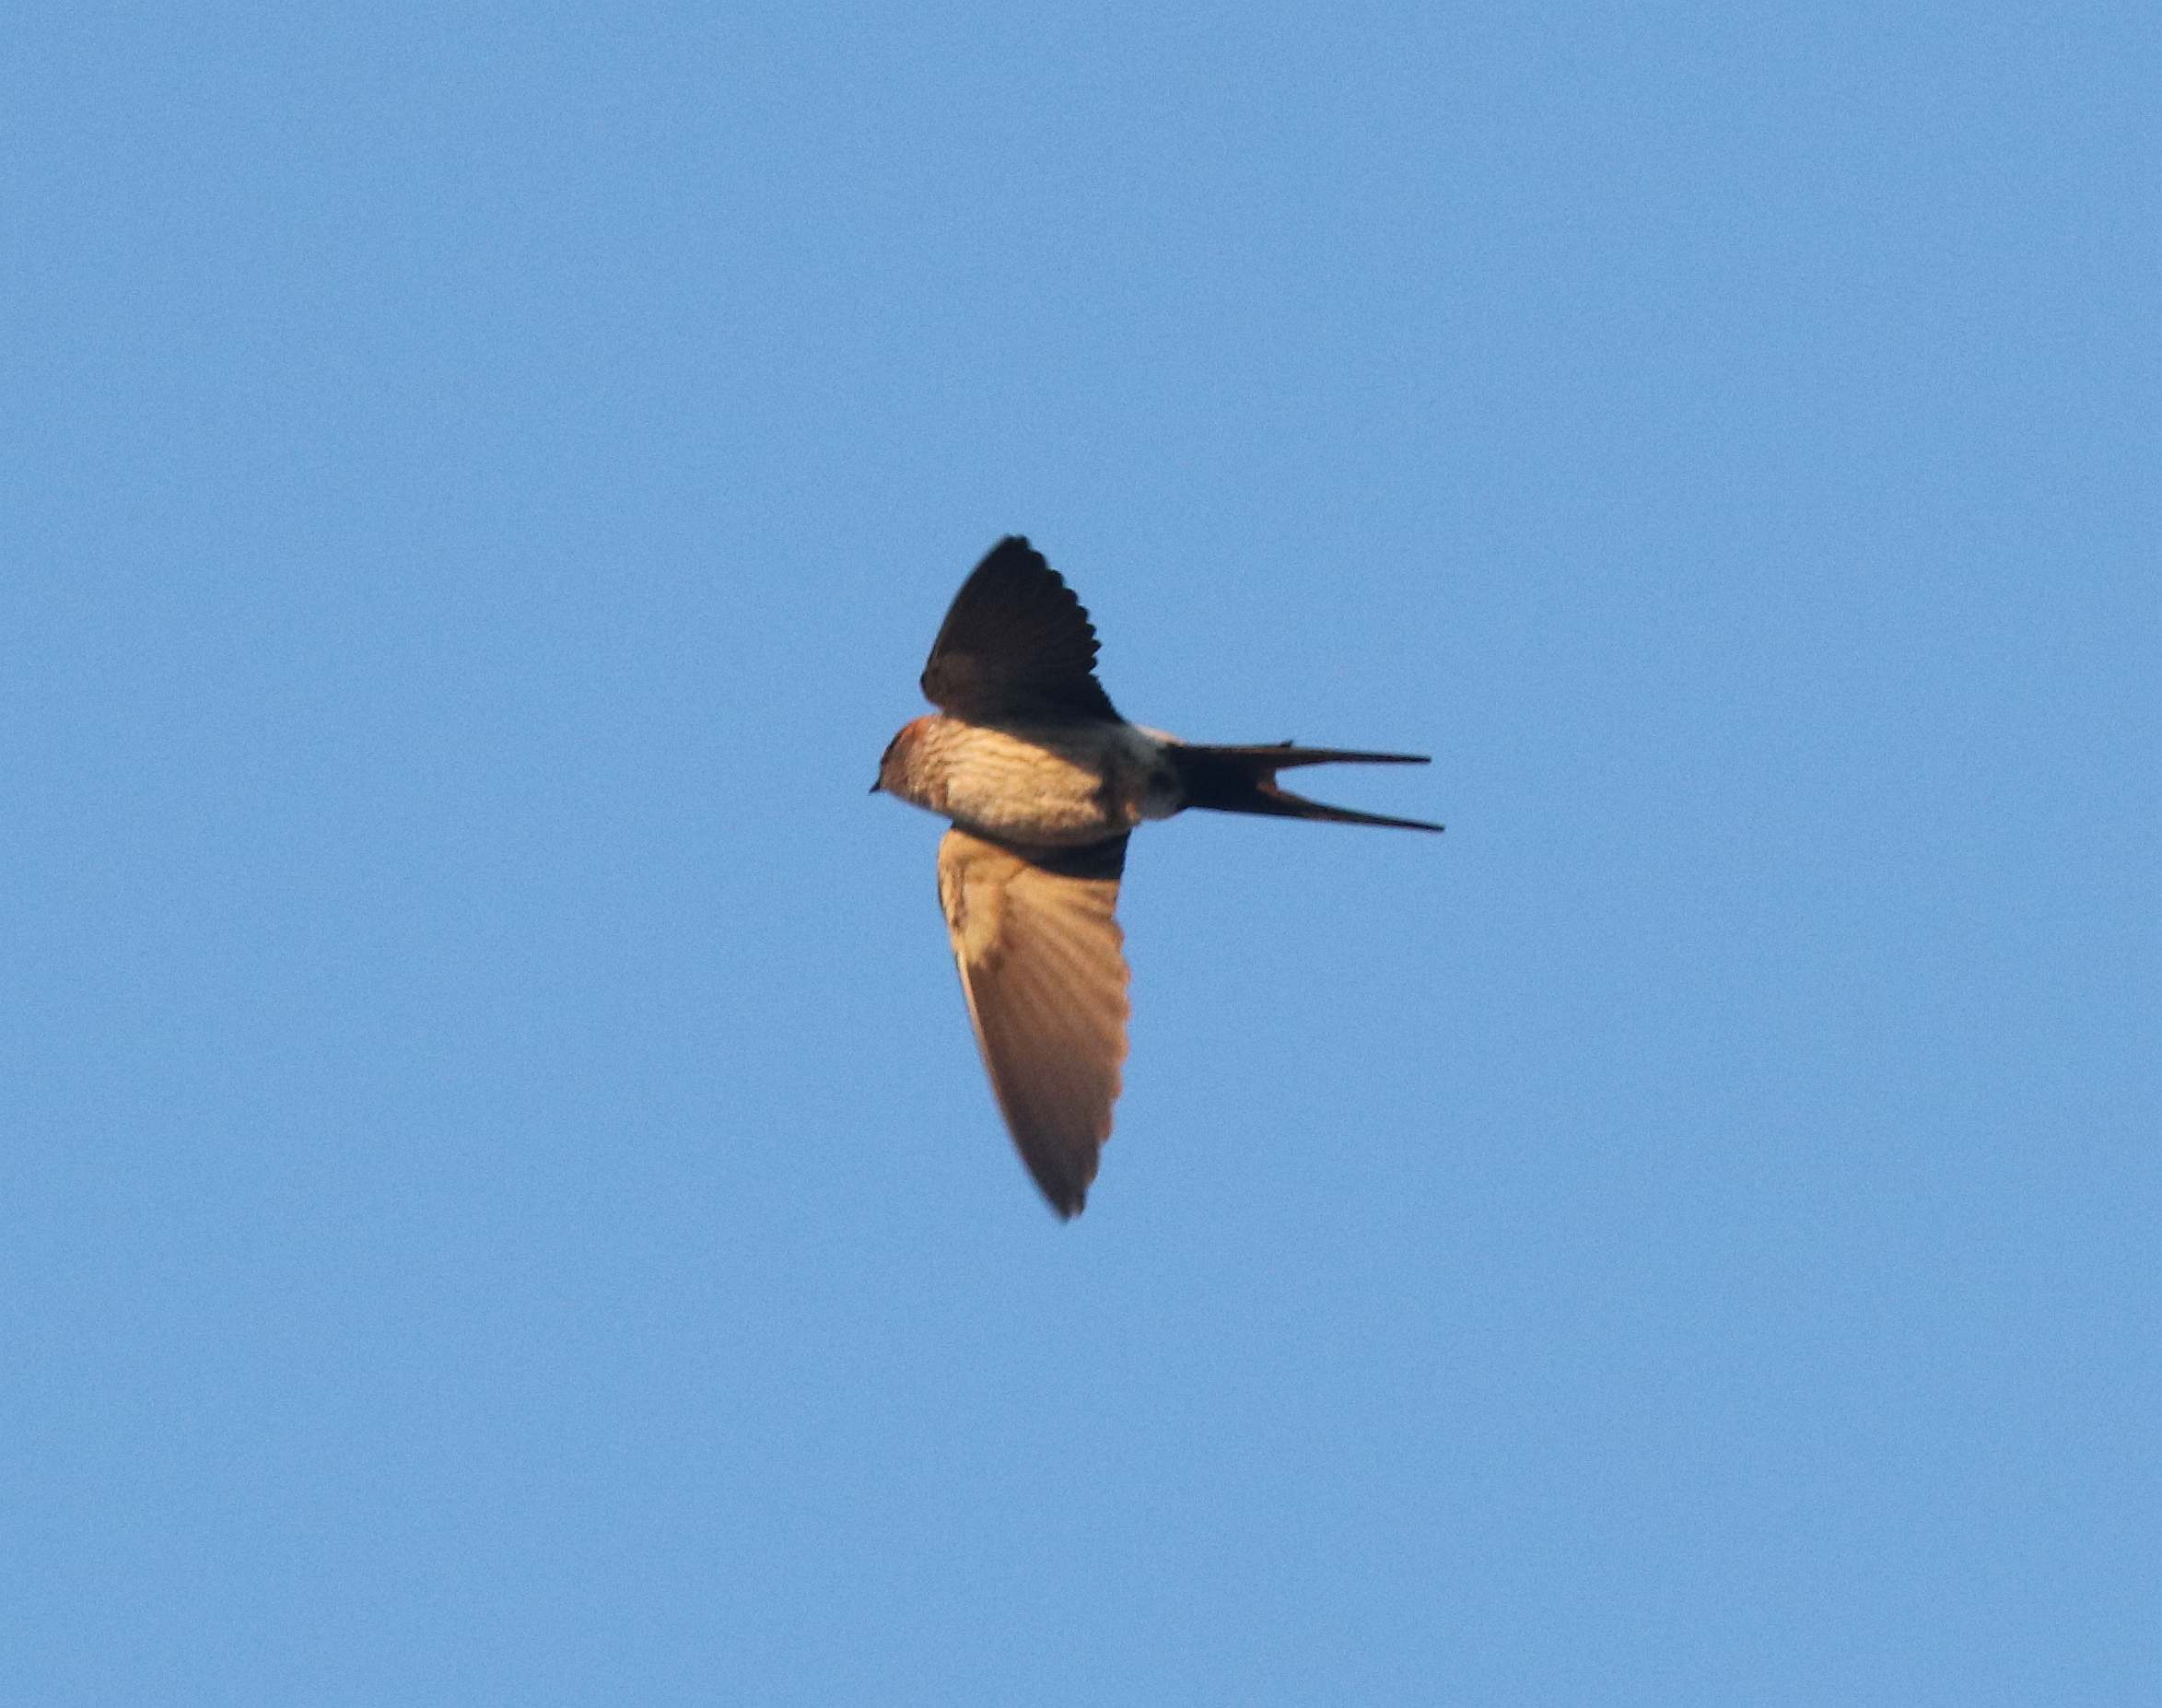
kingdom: Animalia
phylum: Chordata
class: Aves
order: Passeriformes
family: Hirundinidae
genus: Cecropis
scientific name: Cecropis daurica
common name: Rødrygget svale
